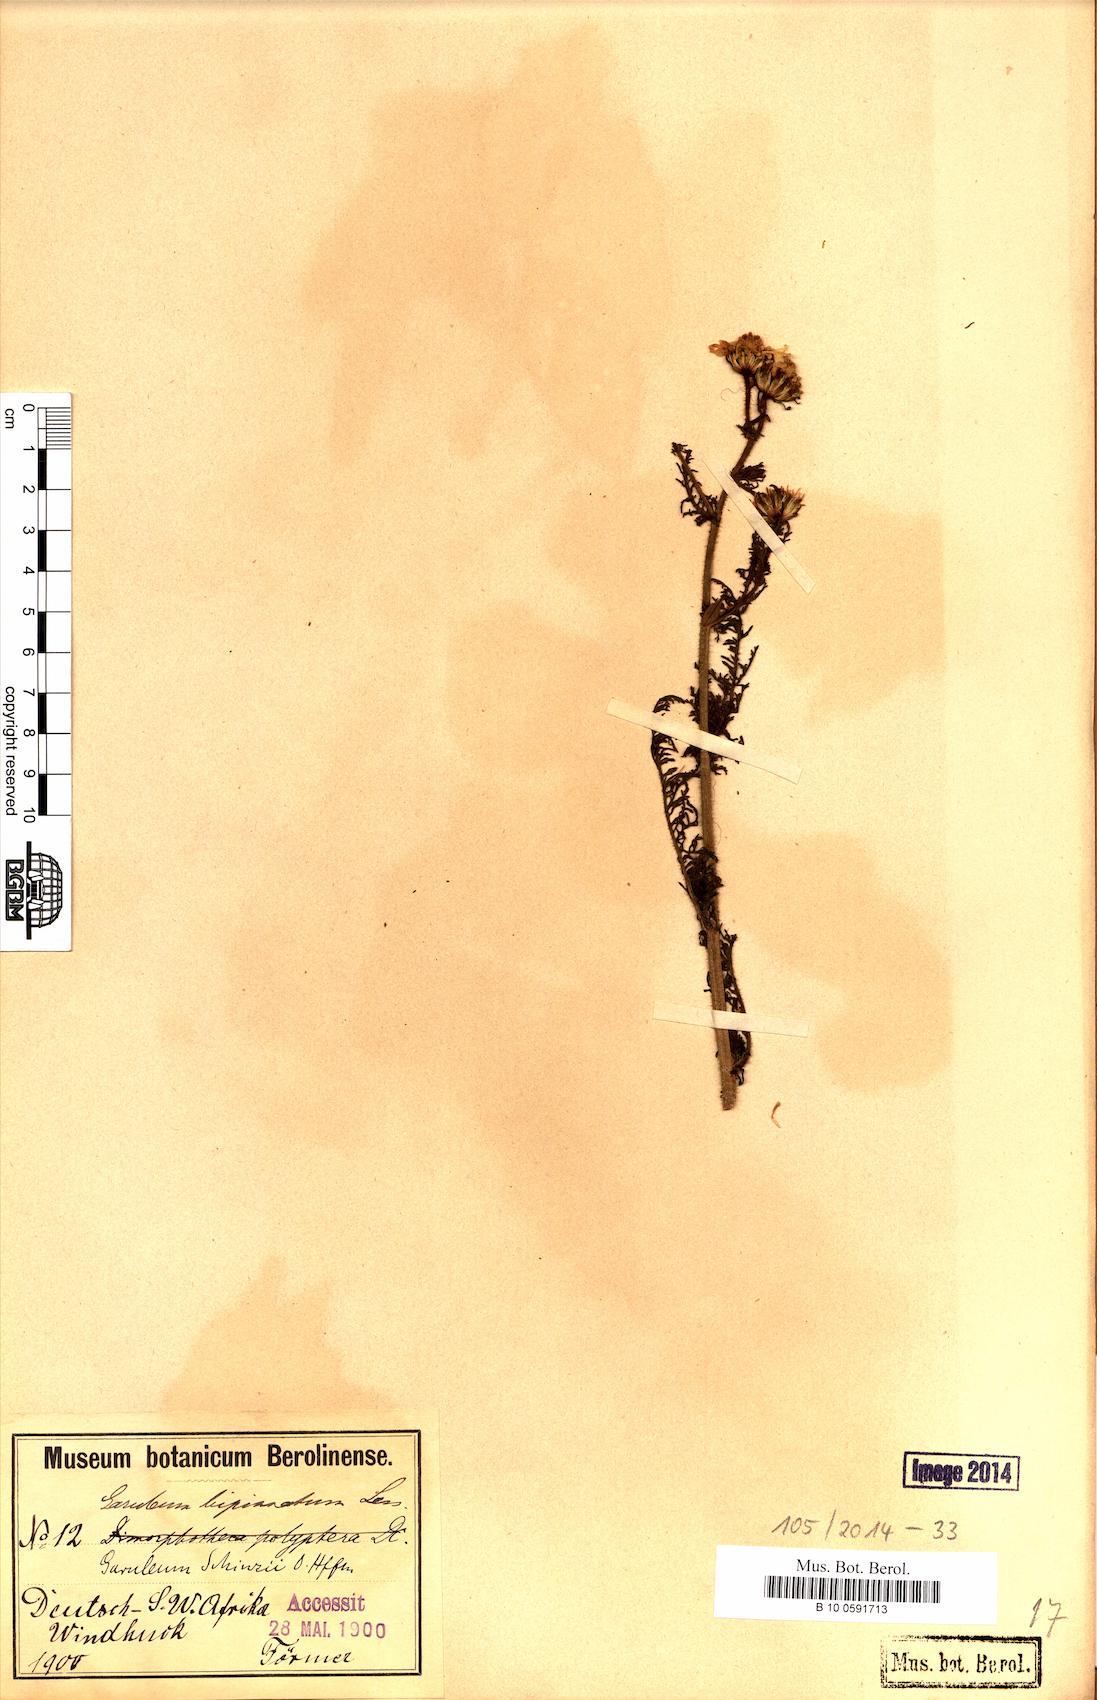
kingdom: Plantae
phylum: Tracheophyta
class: Magnoliopsida
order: Asterales
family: Asteraceae
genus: Garuleum
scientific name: Garuleum schinzii
